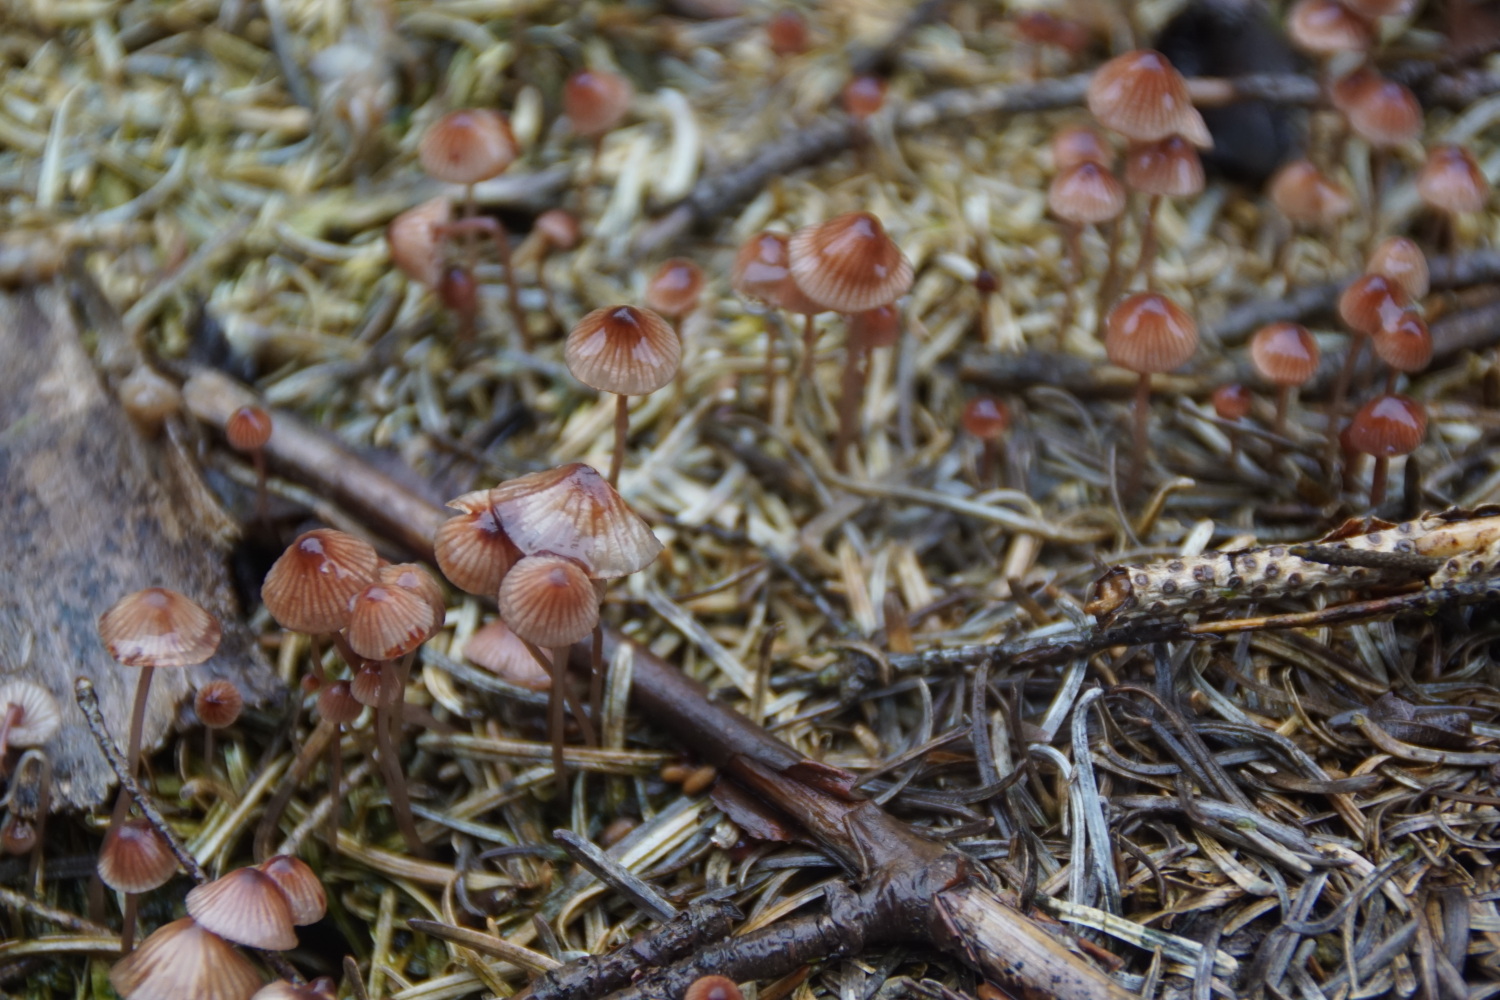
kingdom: Fungi
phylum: Basidiomycota
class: Agaricomycetes
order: Agaricales
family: Mycenaceae
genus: Mycena
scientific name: Mycena sanguinolenta
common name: rødmælket huesvamp
